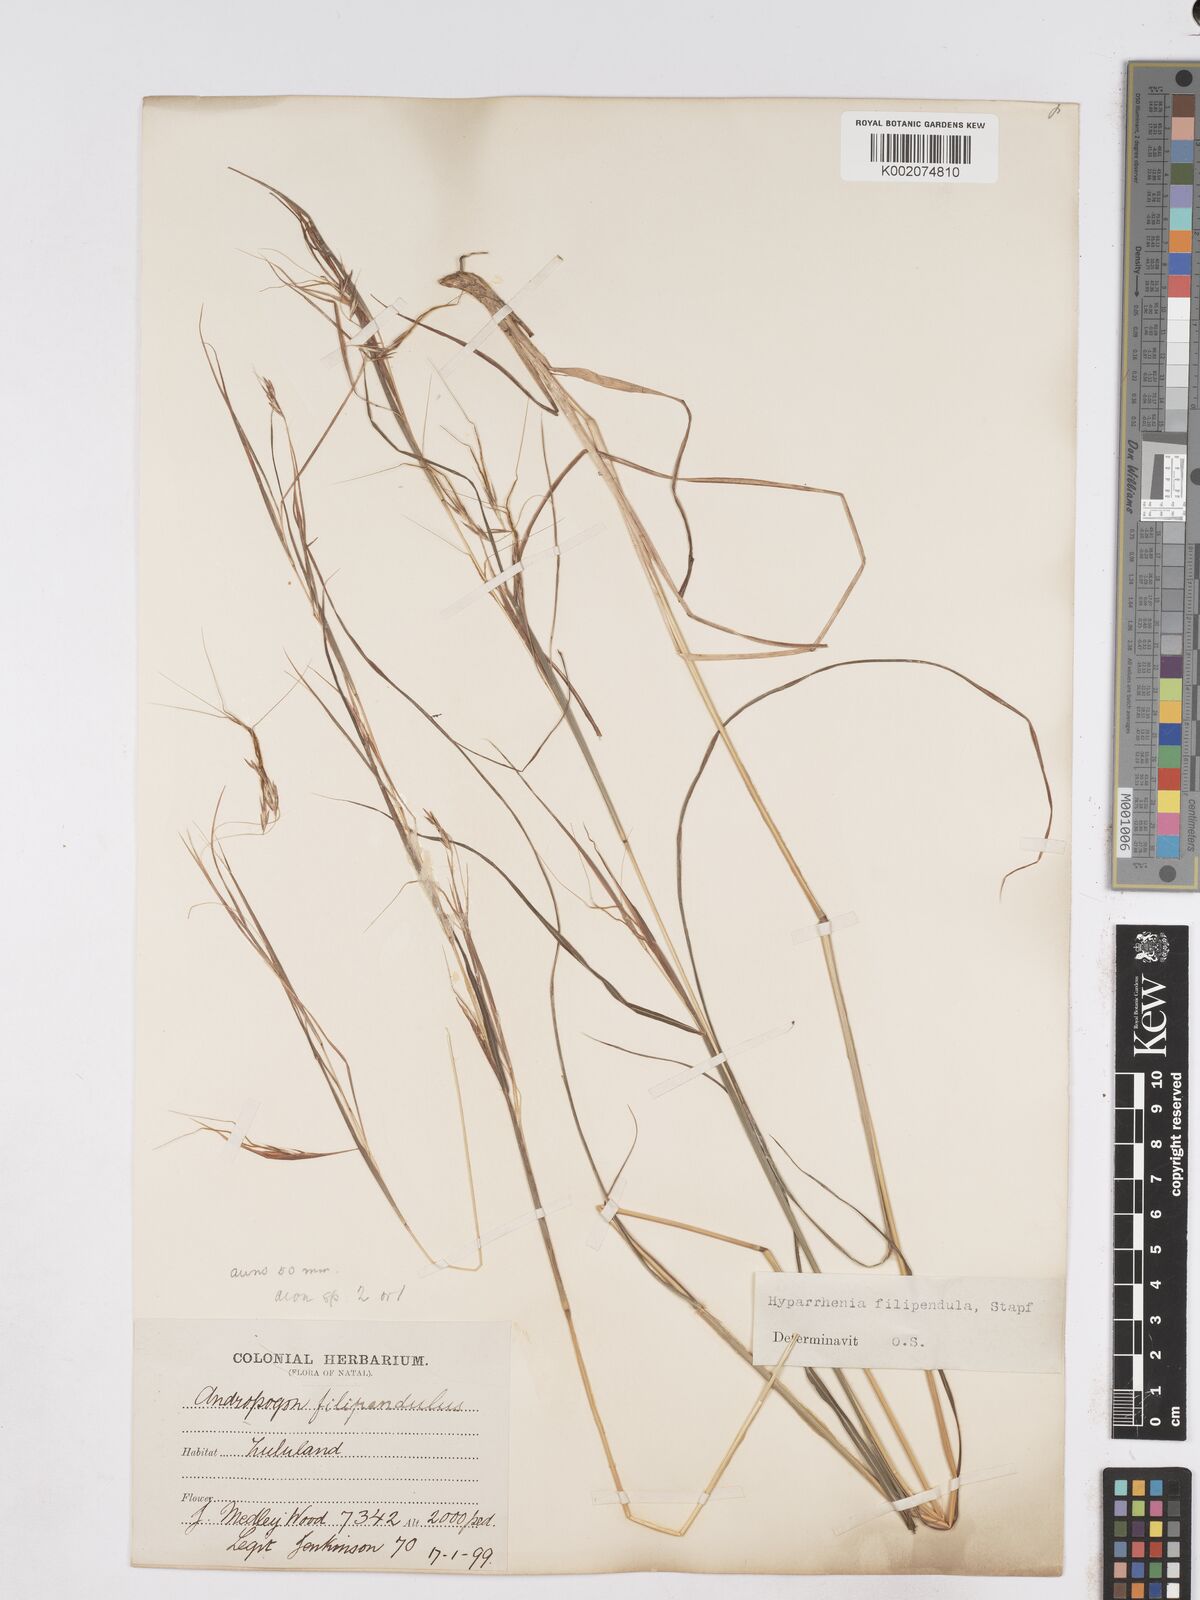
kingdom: Plantae
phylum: Tracheophyta
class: Liliopsida
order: Poales
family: Poaceae
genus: Hyparrhenia
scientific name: Hyparrhenia filipendula
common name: Tambookie grass
